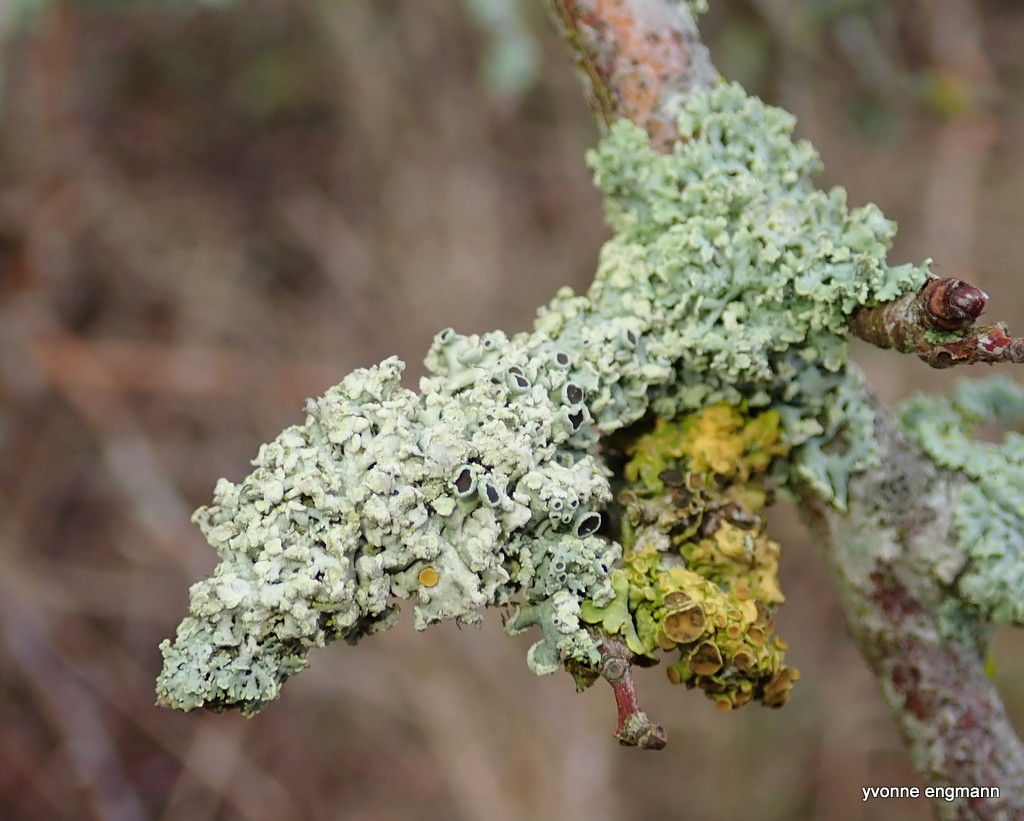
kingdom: Fungi
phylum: Ascomycota
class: Lecanoromycetes
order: Caliciales
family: Physciaceae
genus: Physcia
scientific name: Physcia tenella
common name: spæd rosetlav
